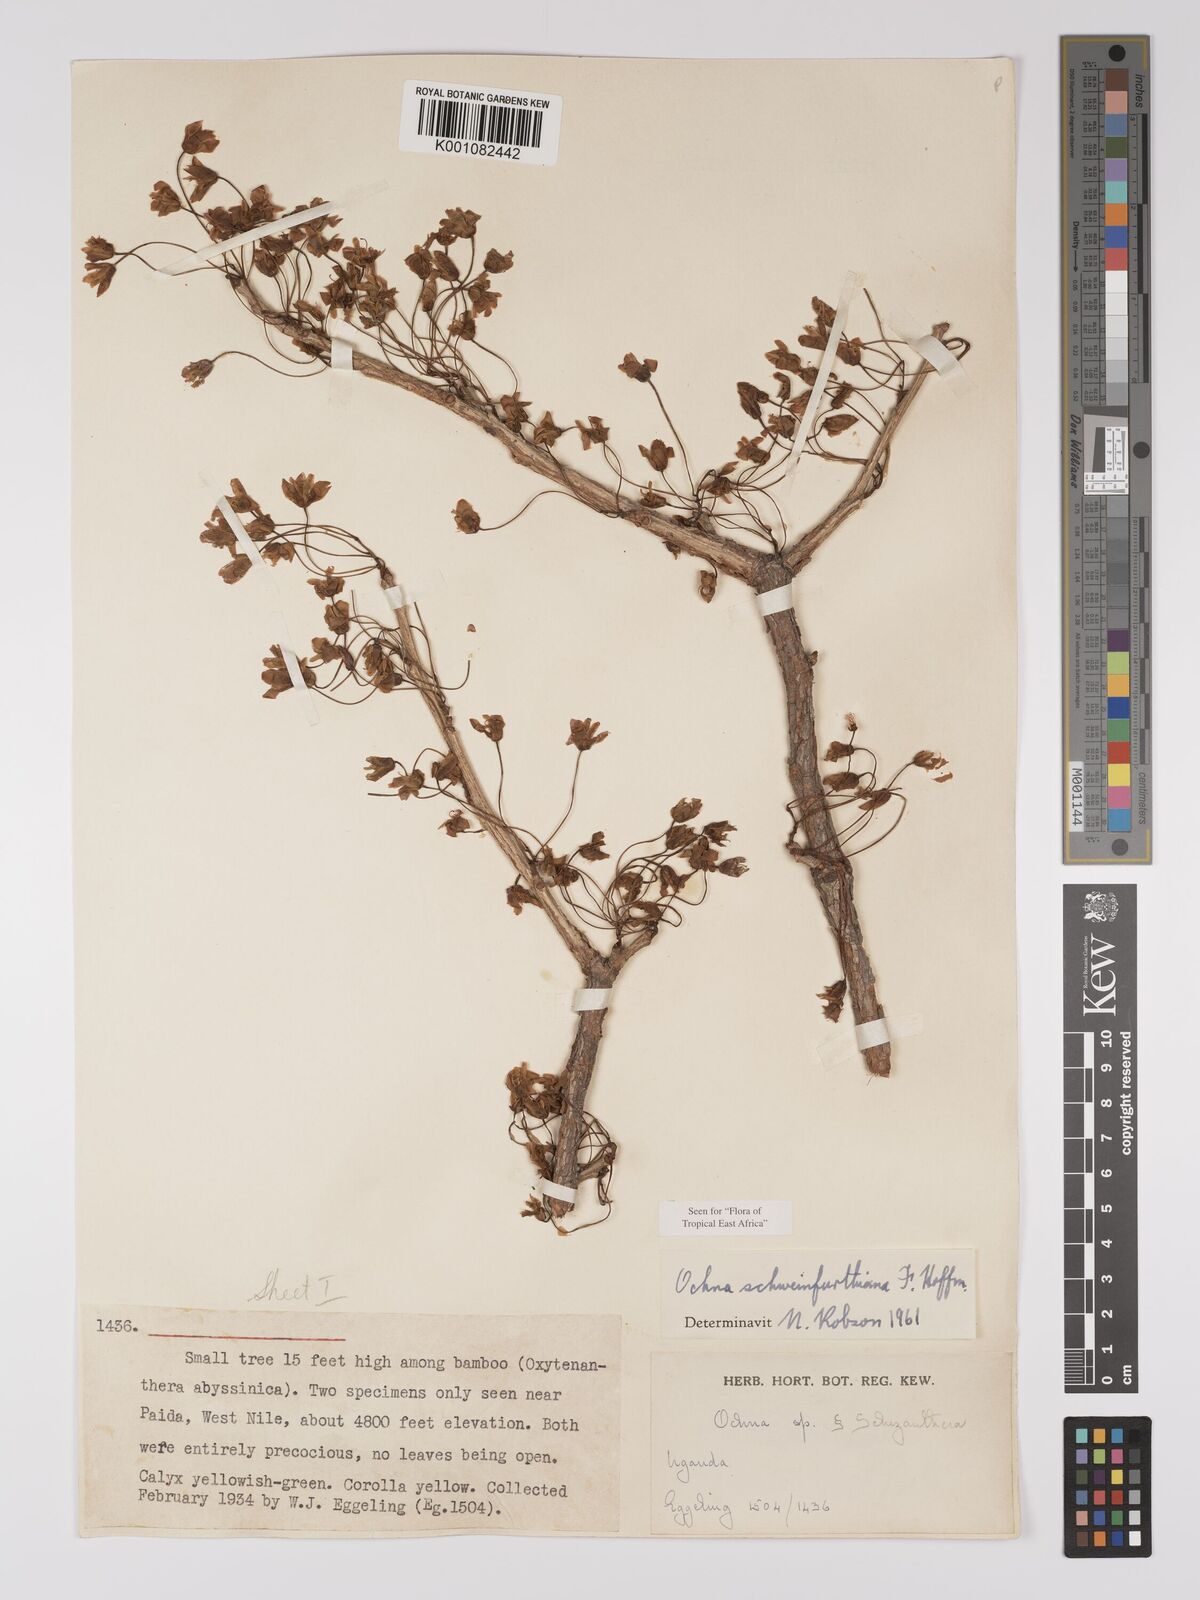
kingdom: Plantae
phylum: Tracheophyta
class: Magnoliopsida
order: Malpighiales
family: Ochnaceae
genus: Ochna
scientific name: Ochna schweinfurthiana
